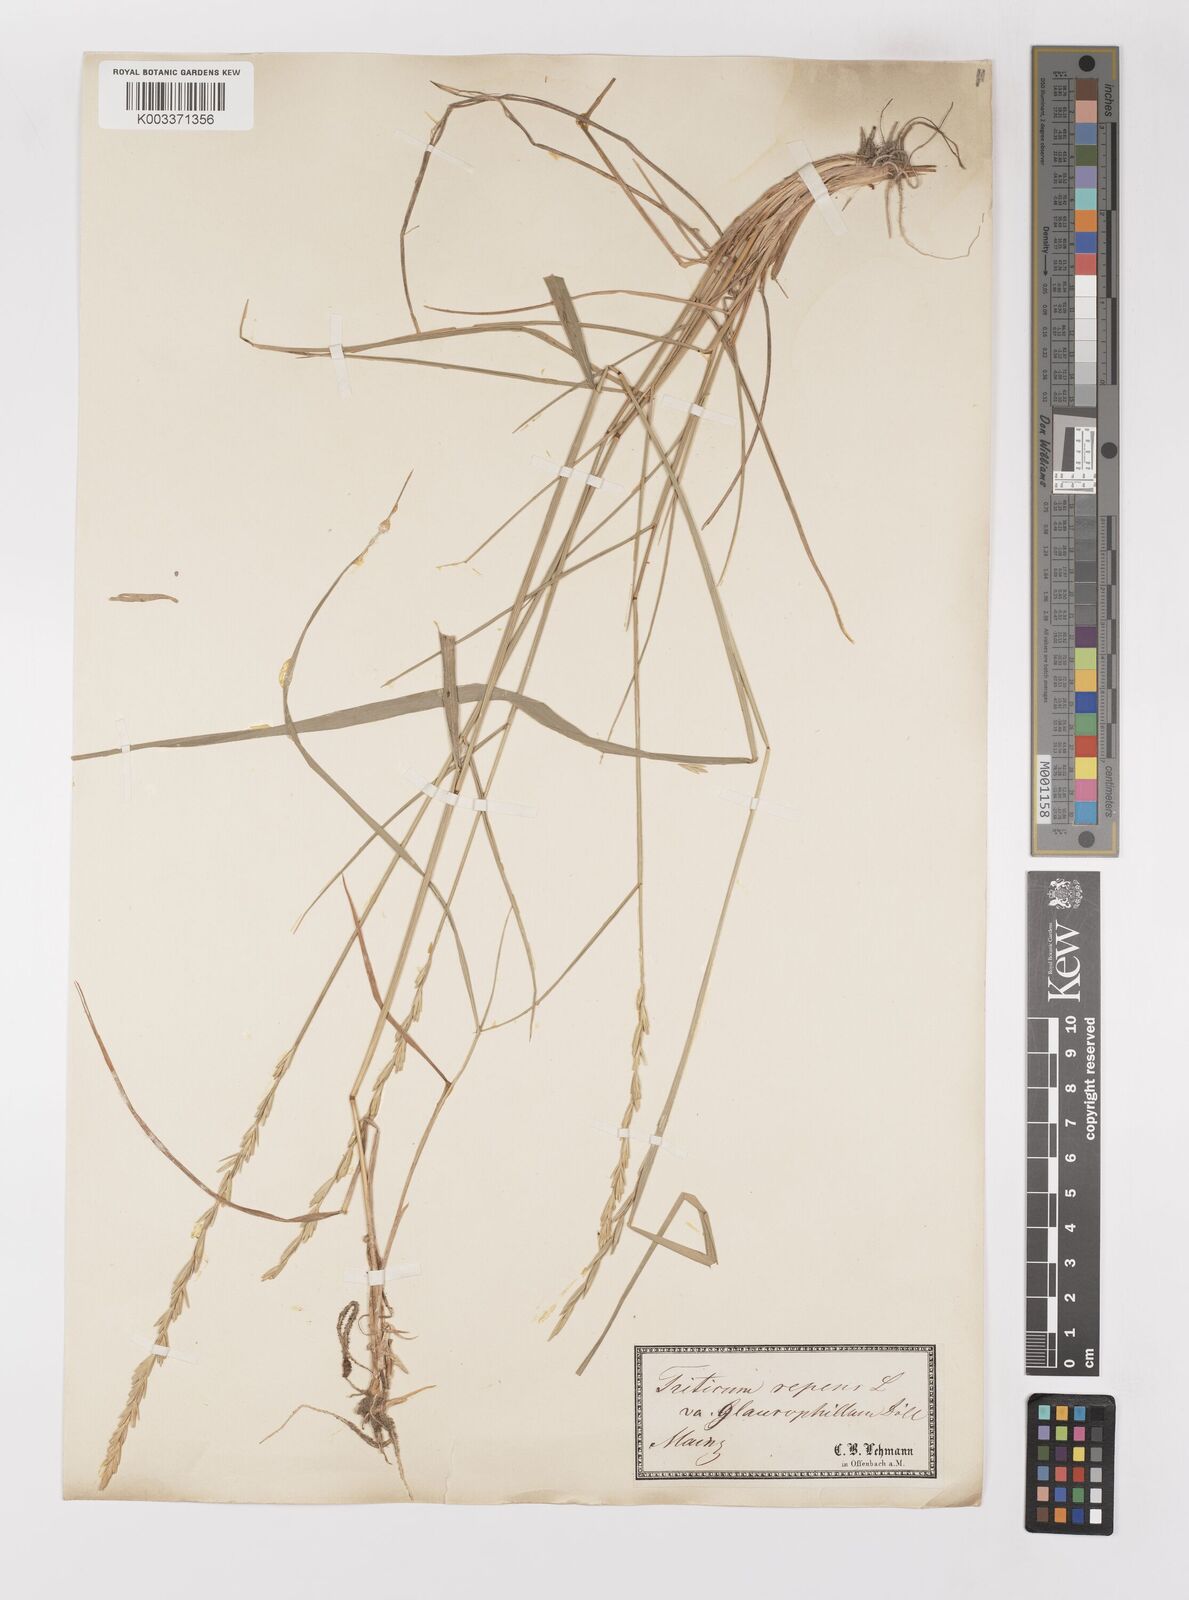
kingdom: Plantae
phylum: Tracheophyta
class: Liliopsida
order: Poales
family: Poaceae
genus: Elymus
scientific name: Elymus repens
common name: Quackgrass
